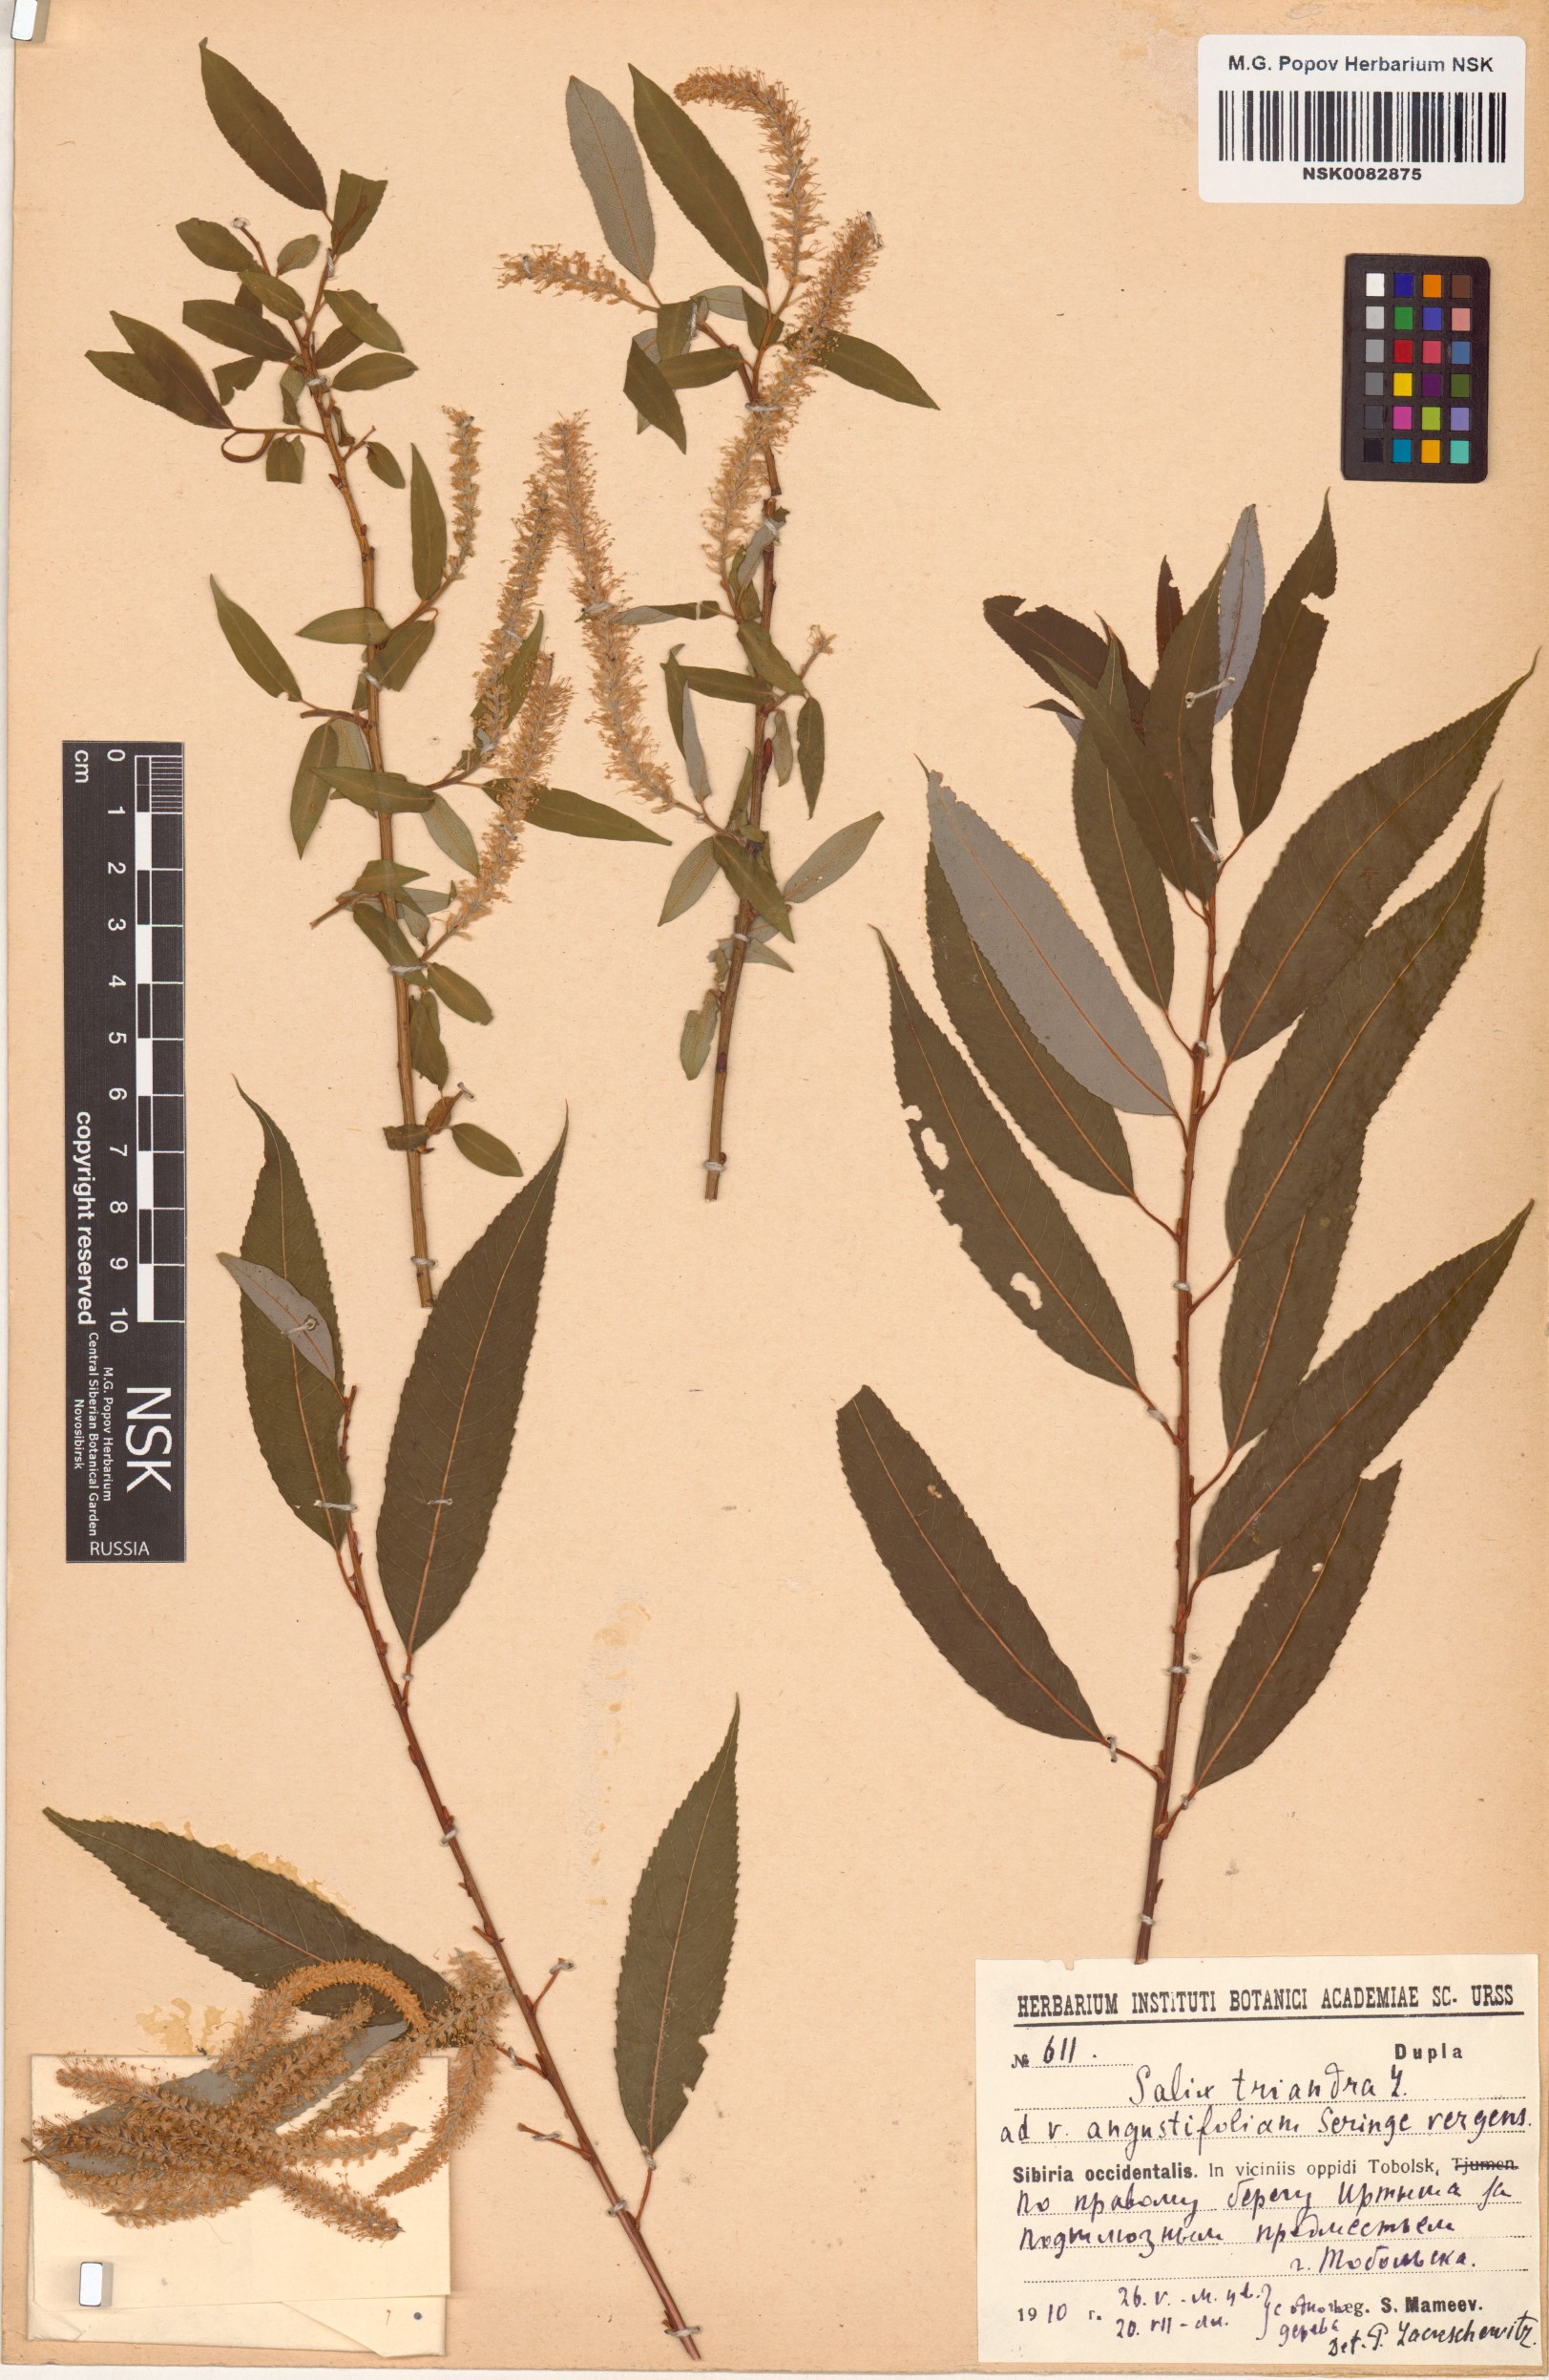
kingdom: Plantae
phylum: Tracheophyta
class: Magnoliopsida
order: Malpighiales
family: Salicaceae
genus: Salix
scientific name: Salix triandra
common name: Almond willow
